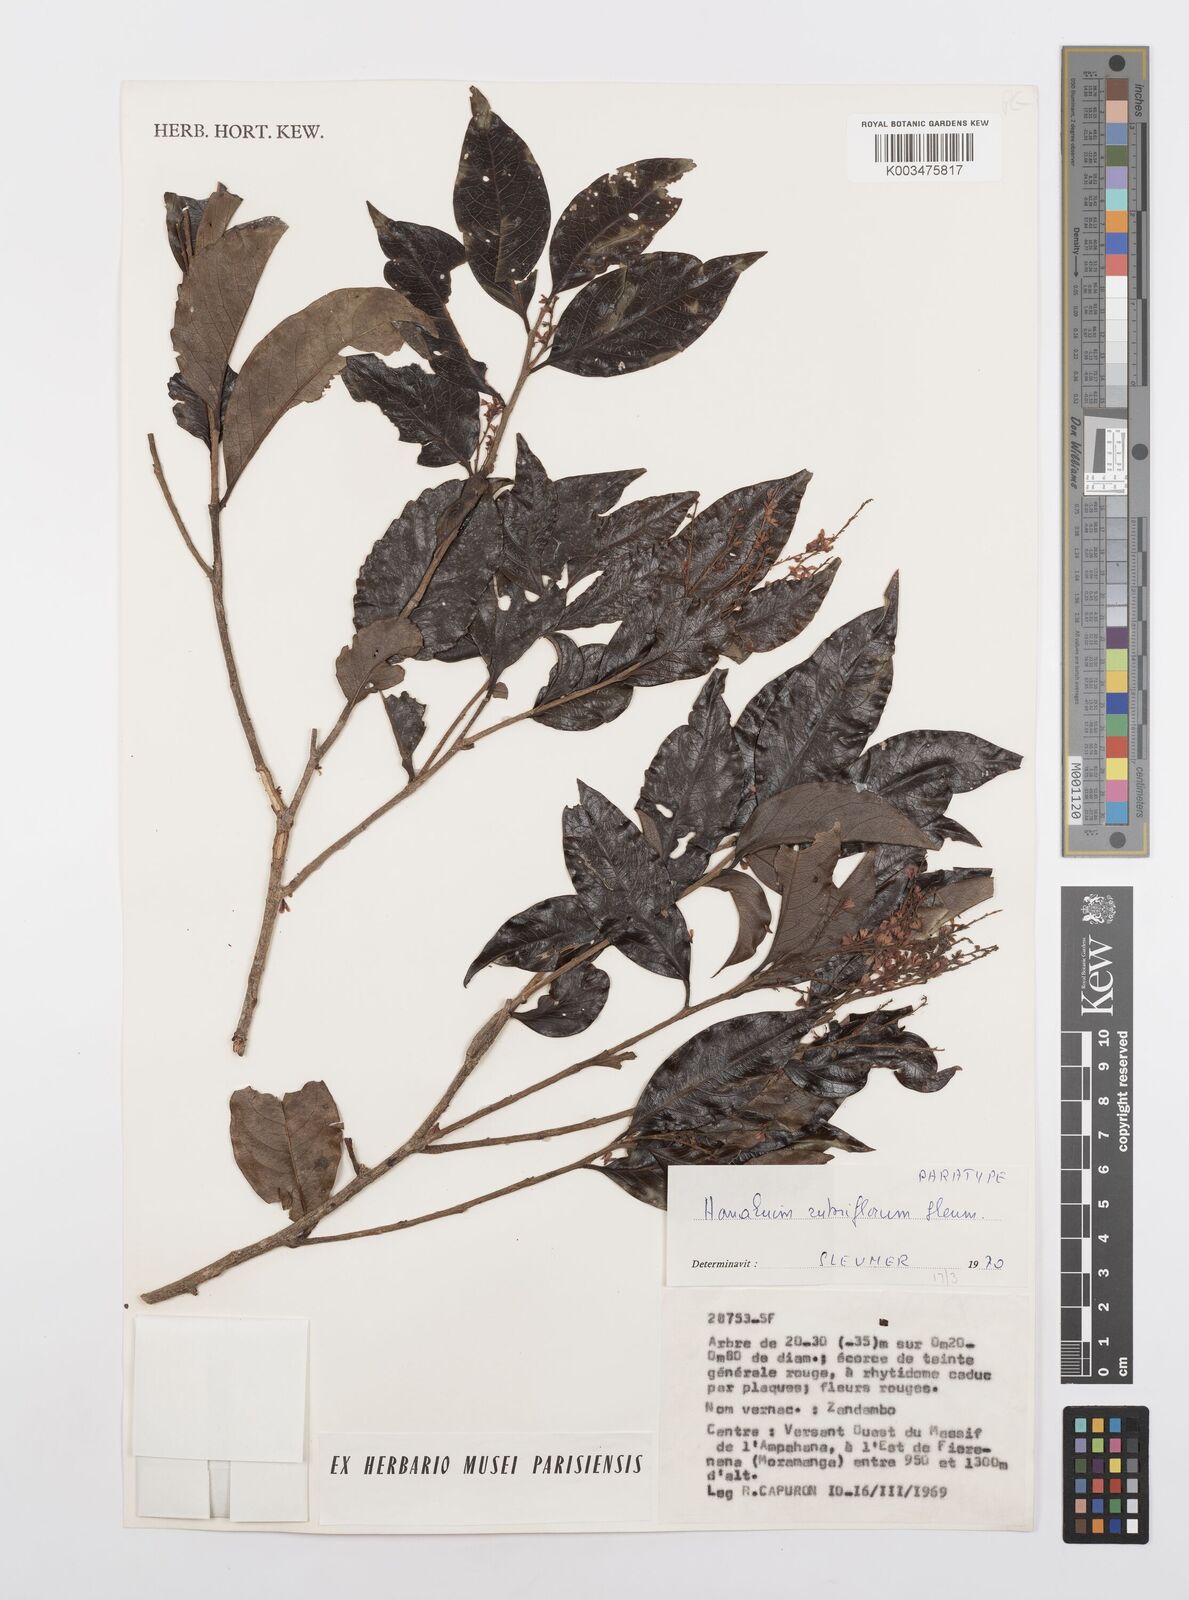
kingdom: Plantae
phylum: Tracheophyta
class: Magnoliopsida
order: Malpighiales
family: Salicaceae
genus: Homalium
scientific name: Homalium rubriflorum
